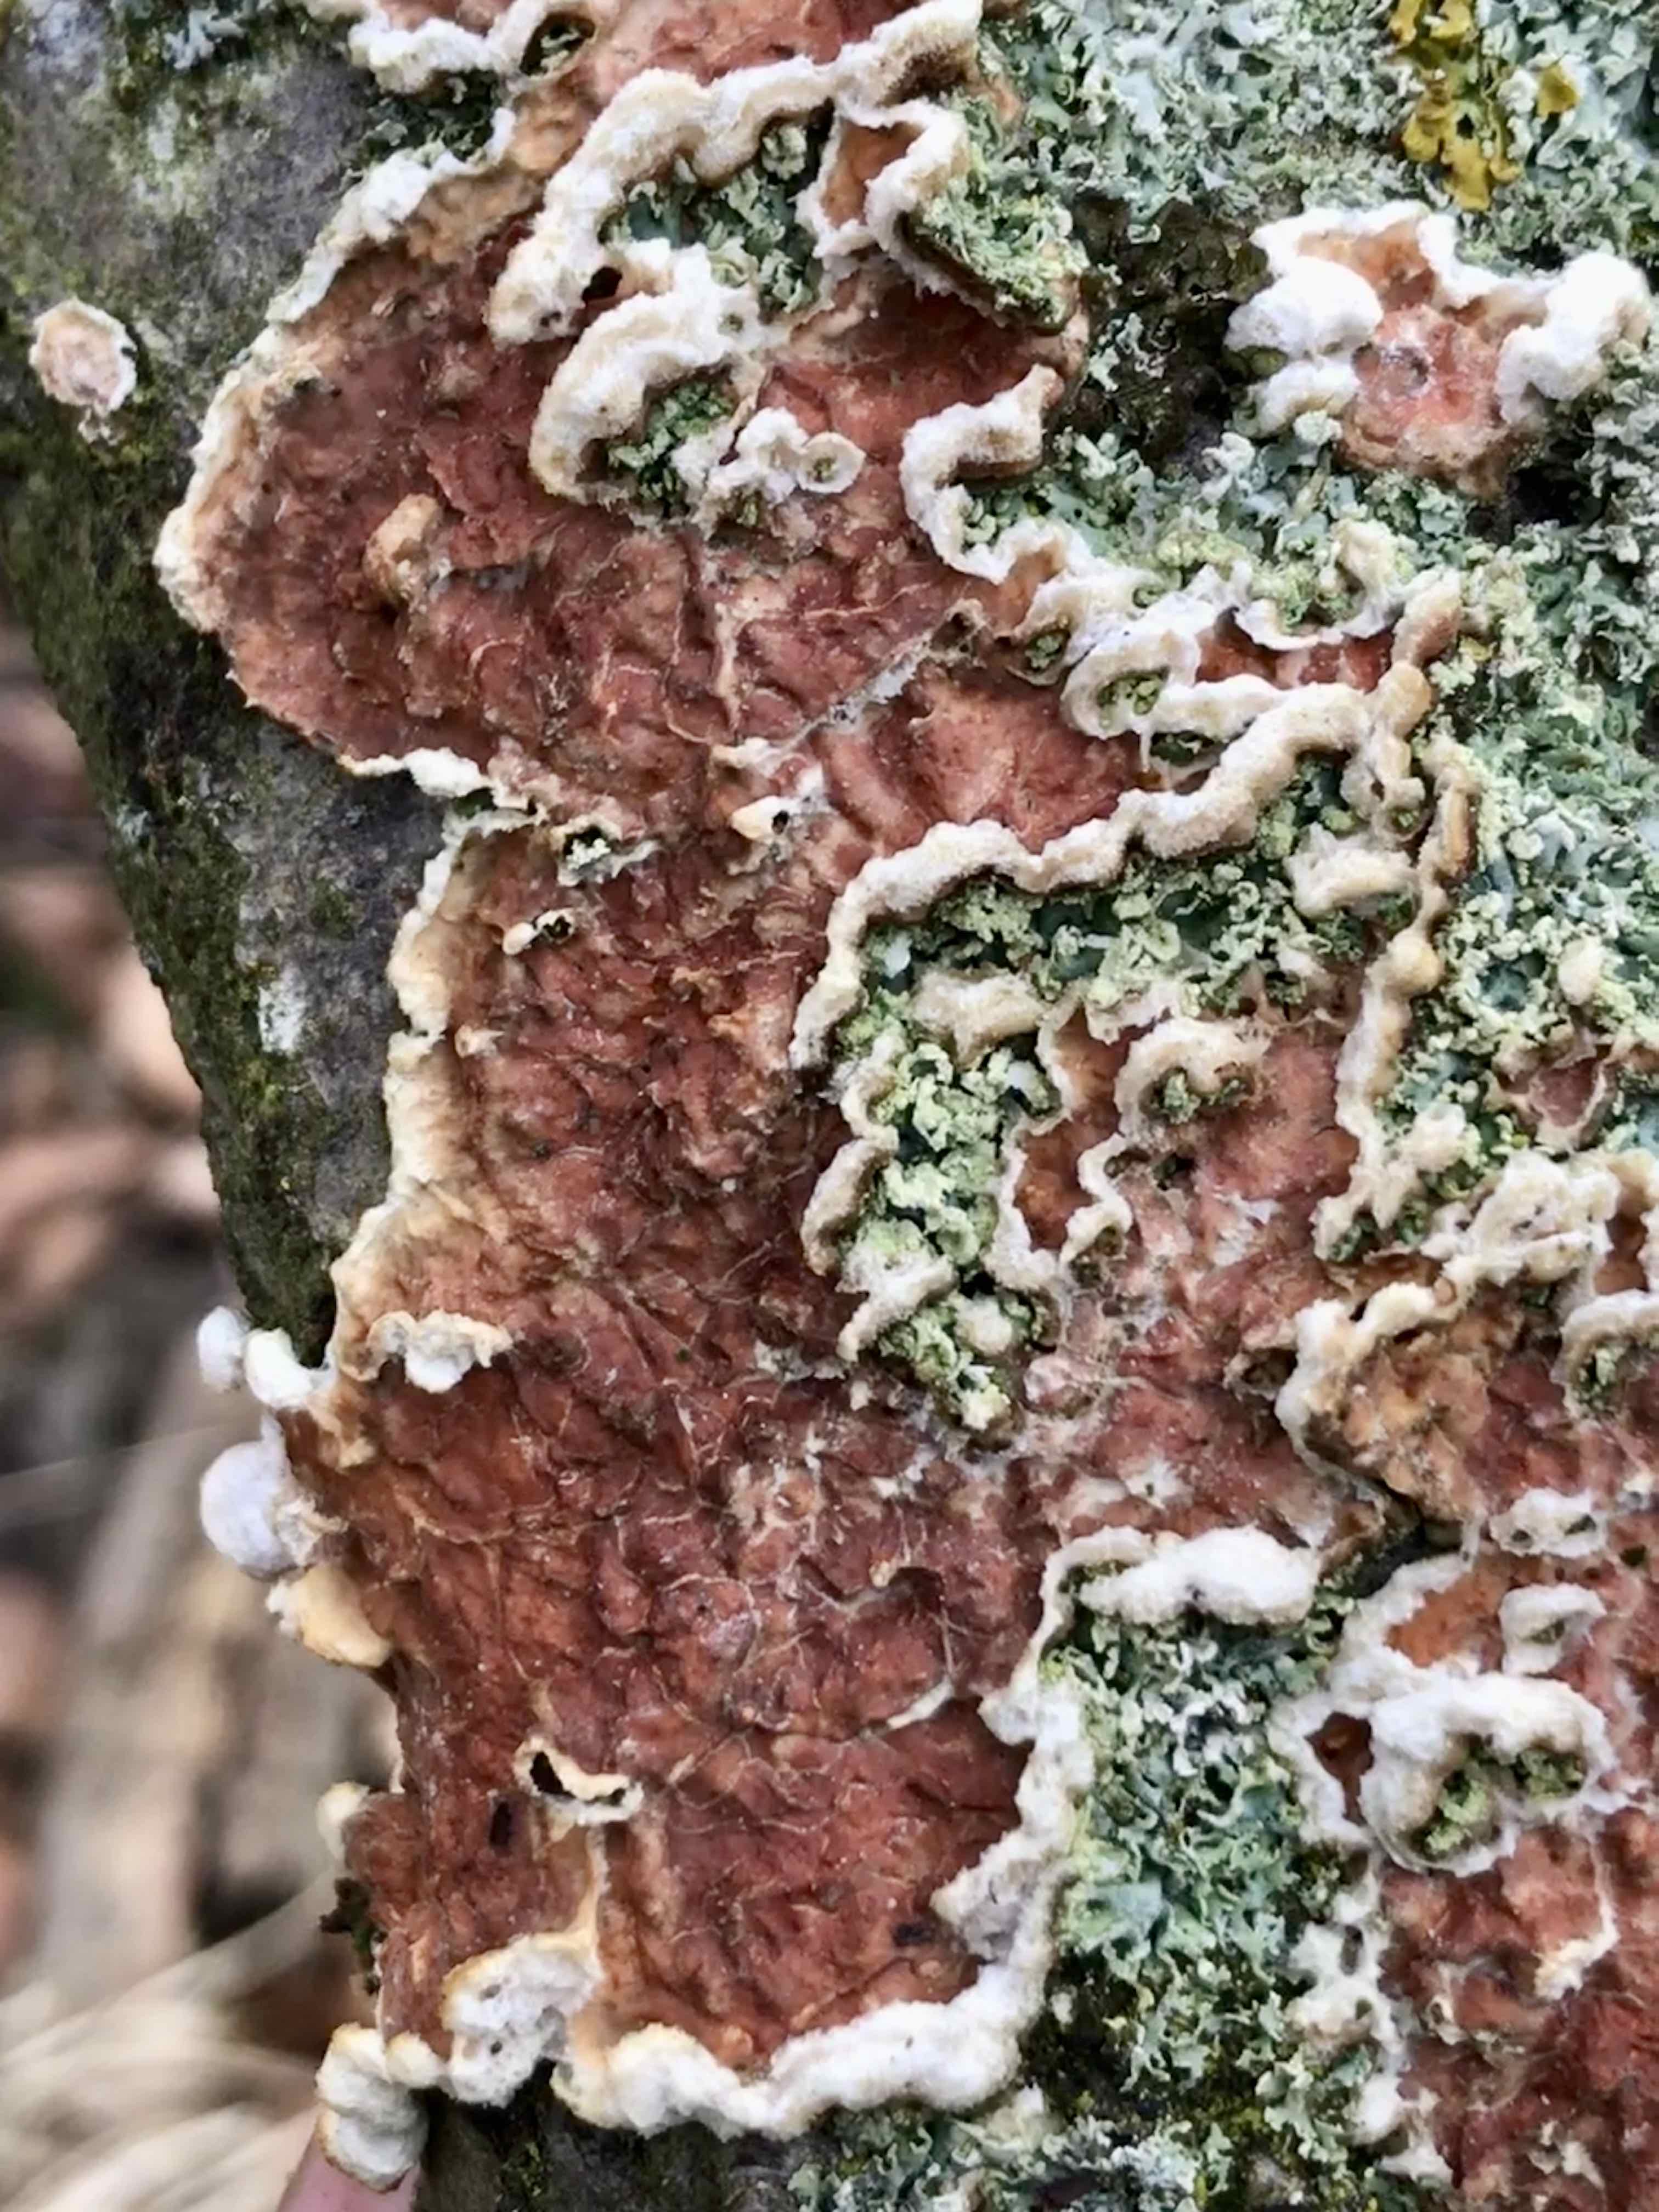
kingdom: Fungi
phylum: Basidiomycota
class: Agaricomycetes
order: Polyporales
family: Irpicaceae
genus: Meruliopsis
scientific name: Meruliopsis taxicola
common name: purpurbrun foldporesvamp
